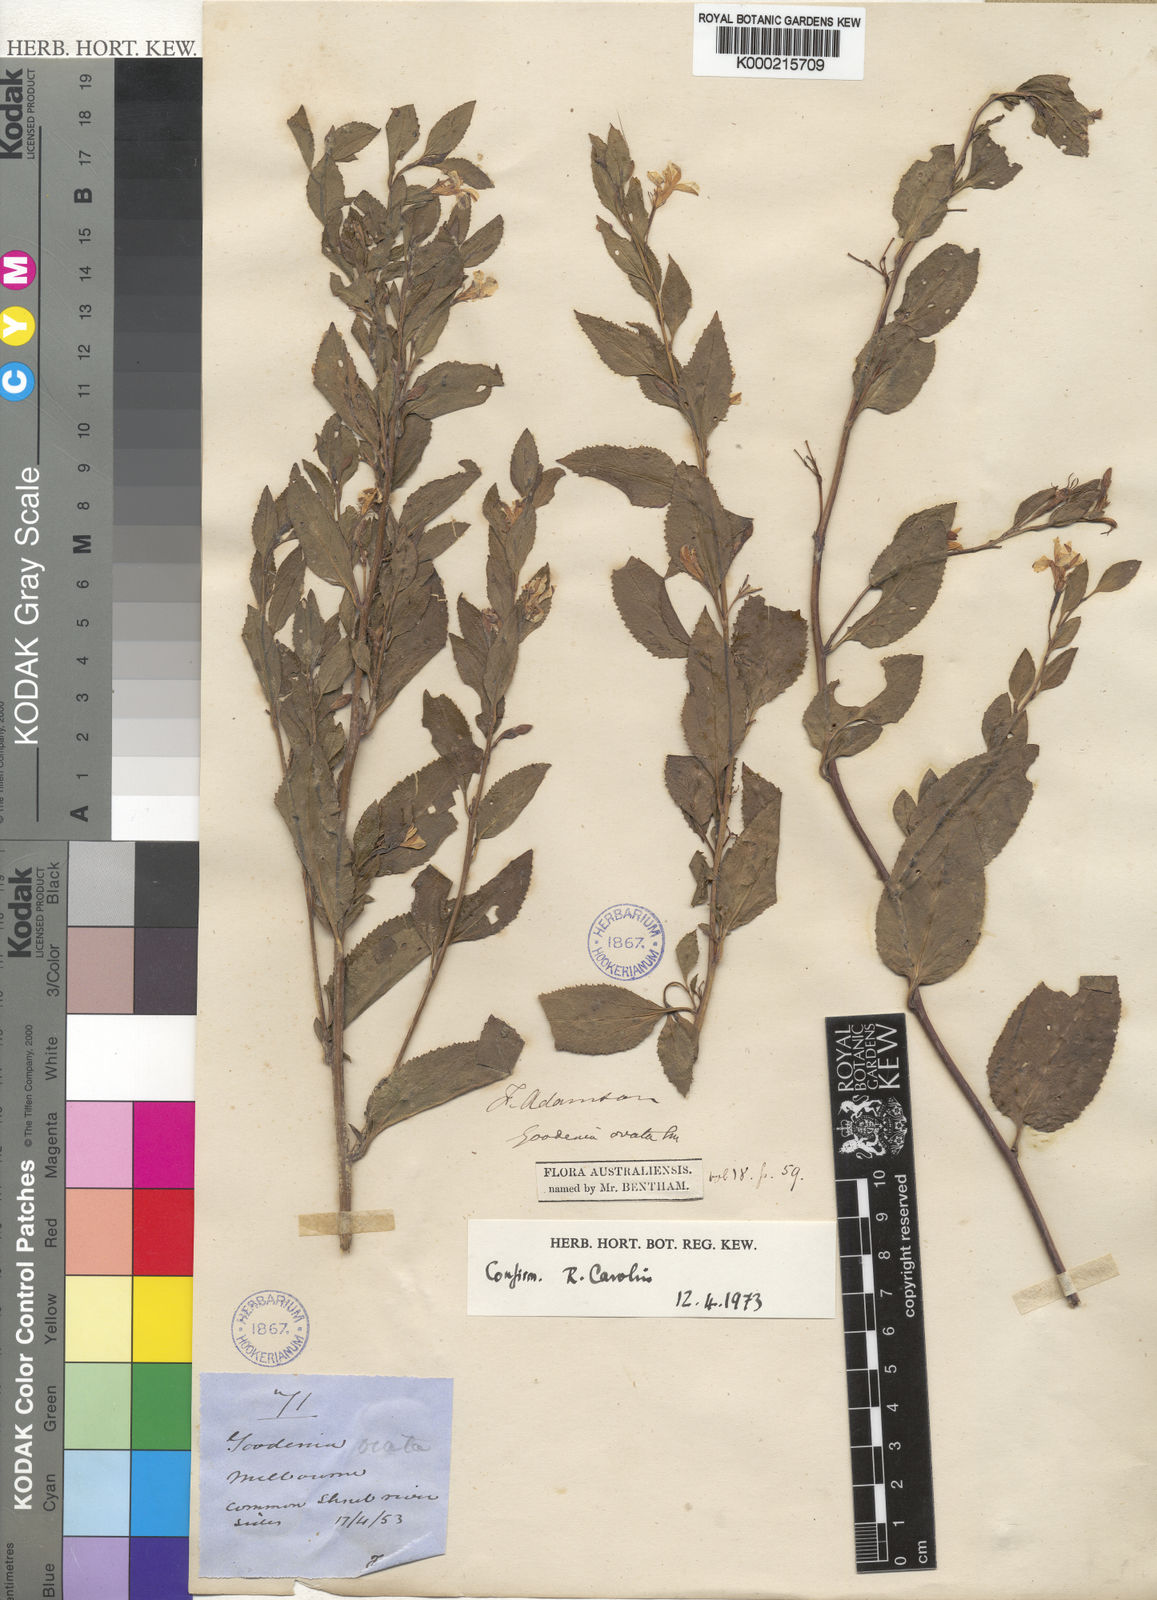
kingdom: Plantae
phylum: Tracheophyta
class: Magnoliopsida
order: Asterales
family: Goodeniaceae
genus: Goodenia
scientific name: Goodenia ovata
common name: Hop goodenia
